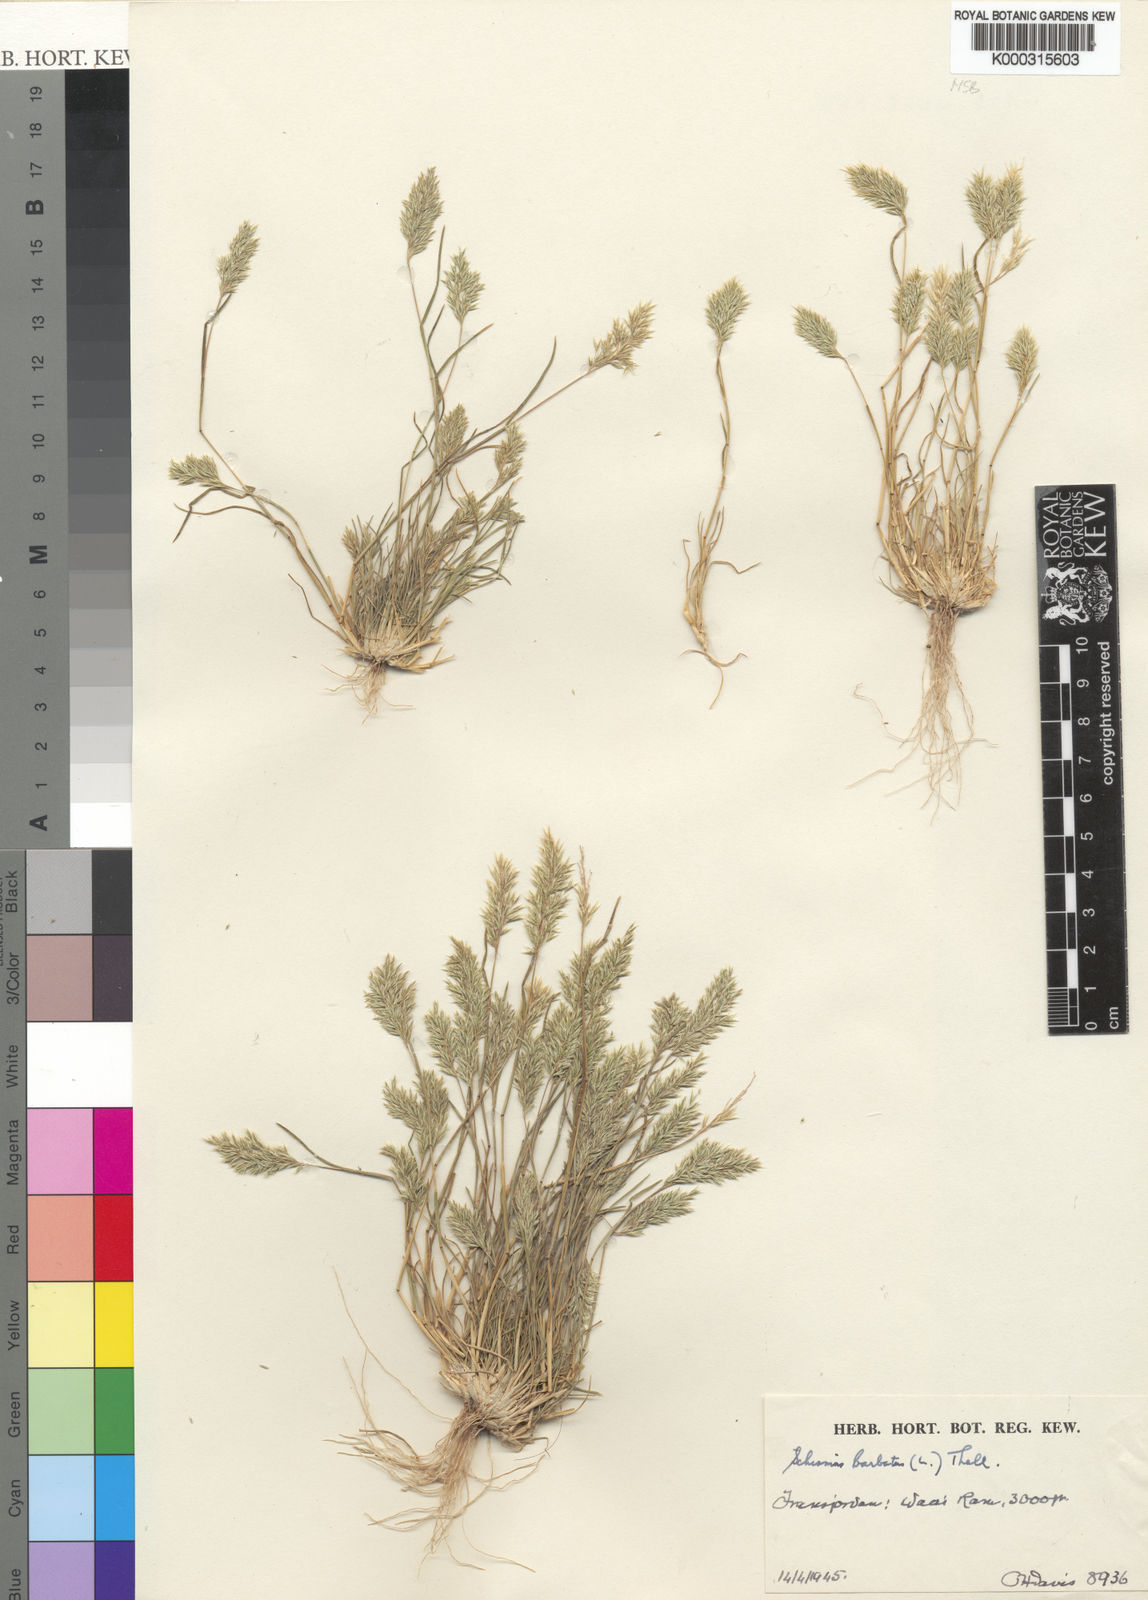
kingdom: Plantae
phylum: Tracheophyta
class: Liliopsida
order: Poales
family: Poaceae
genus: Schismus
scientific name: Schismus barbatus
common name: Kelch-grass
